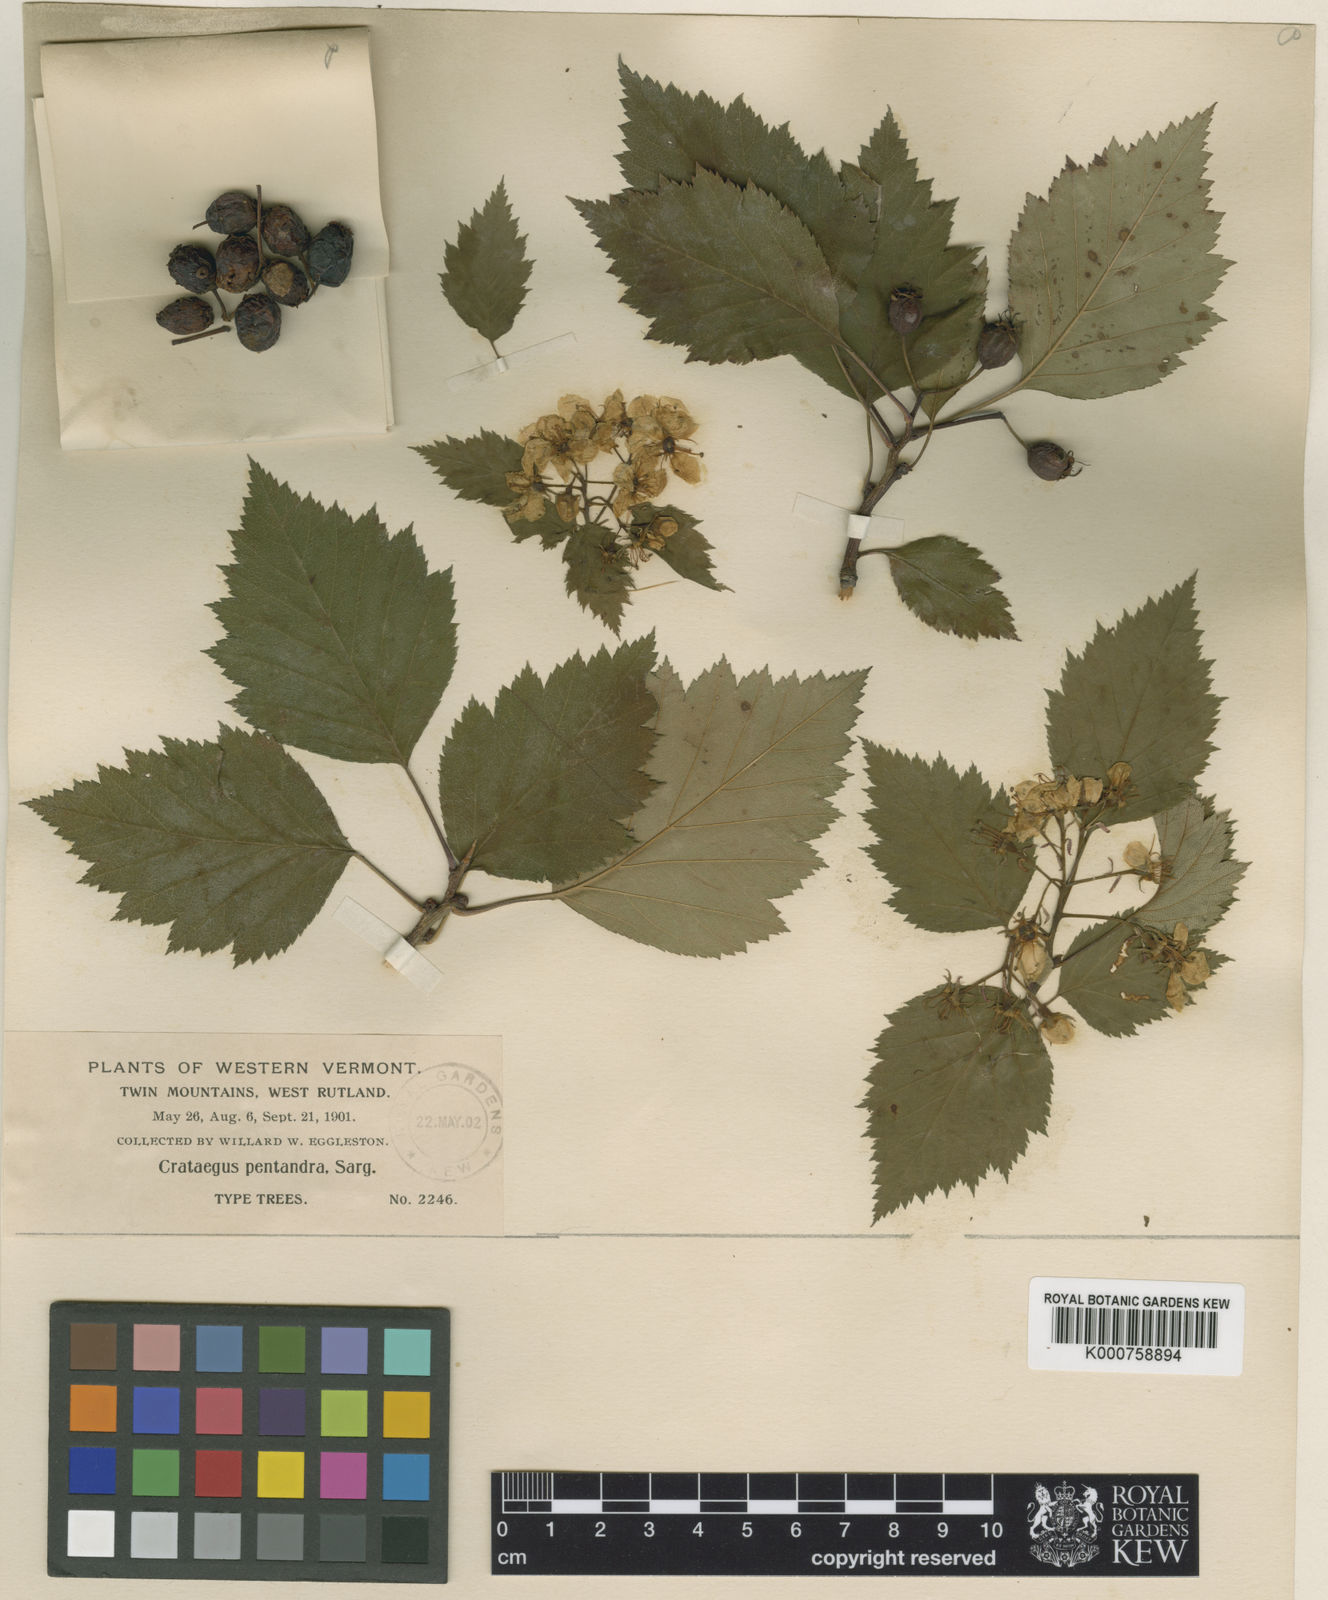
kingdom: Plantae
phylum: Tracheophyta
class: Magnoliopsida
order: Rosales
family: Rosaceae
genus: Crataegus
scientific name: Crataegus macrosperma
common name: Variable hawthorn
